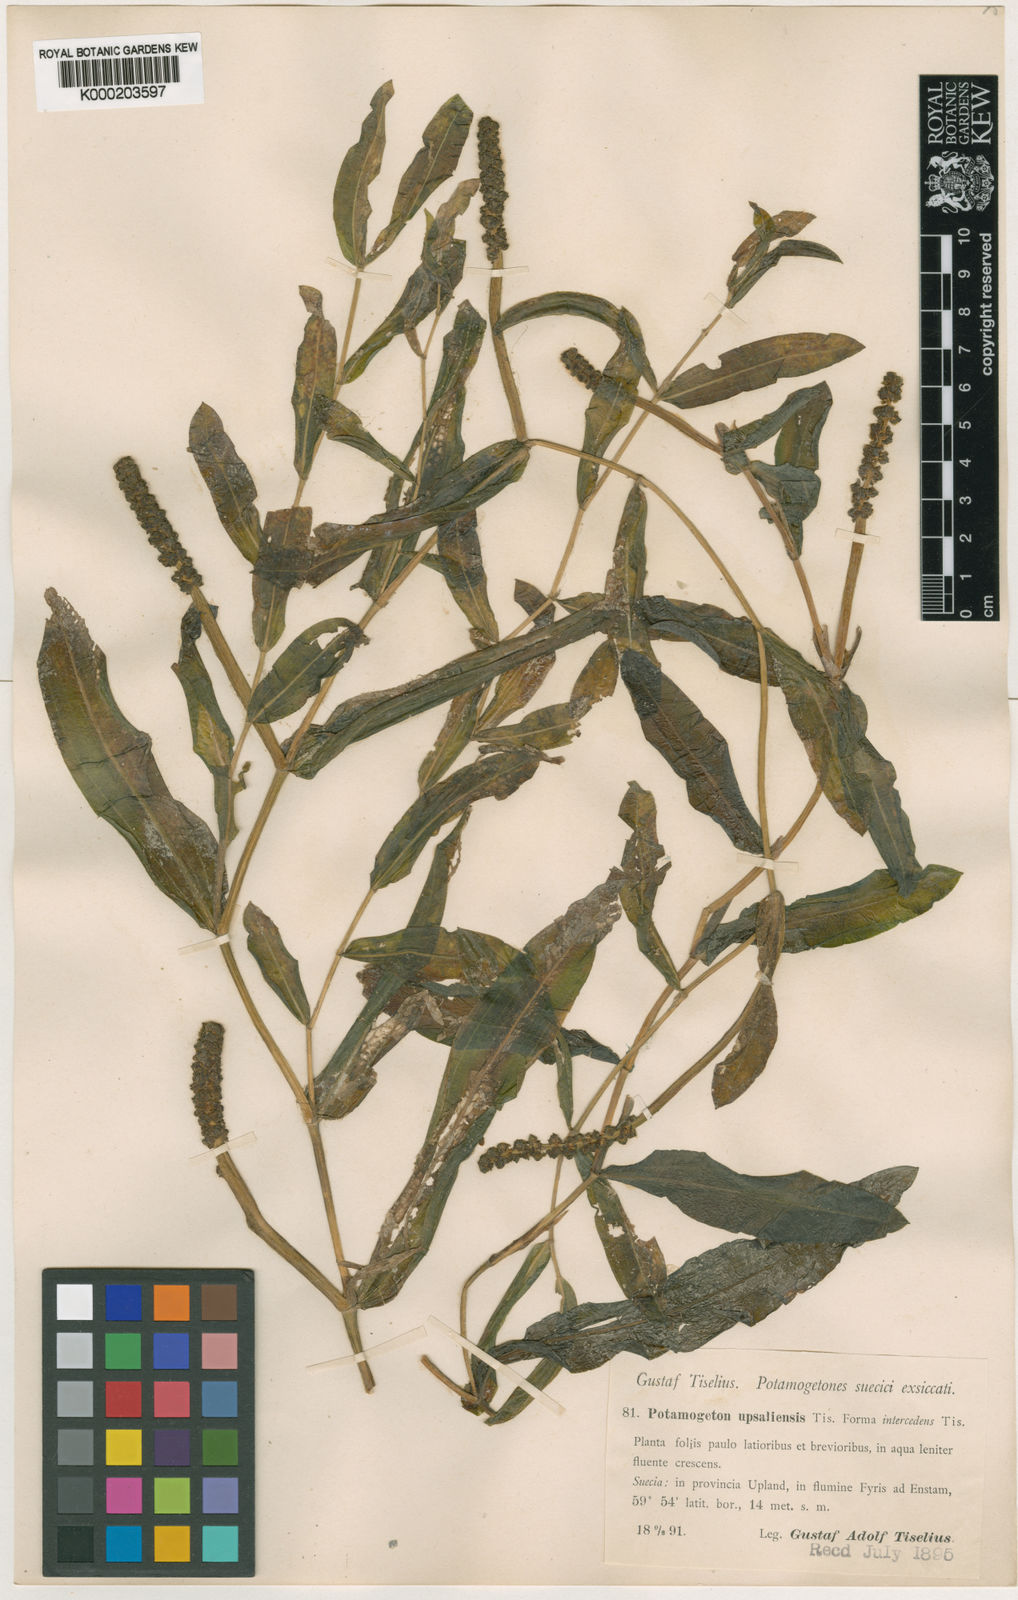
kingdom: Plantae
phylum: Tracheophyta
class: Liliopsida
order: Alismatales
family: Potamogetonaceae
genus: Potamogeton
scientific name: Potamogeton salicifolius
